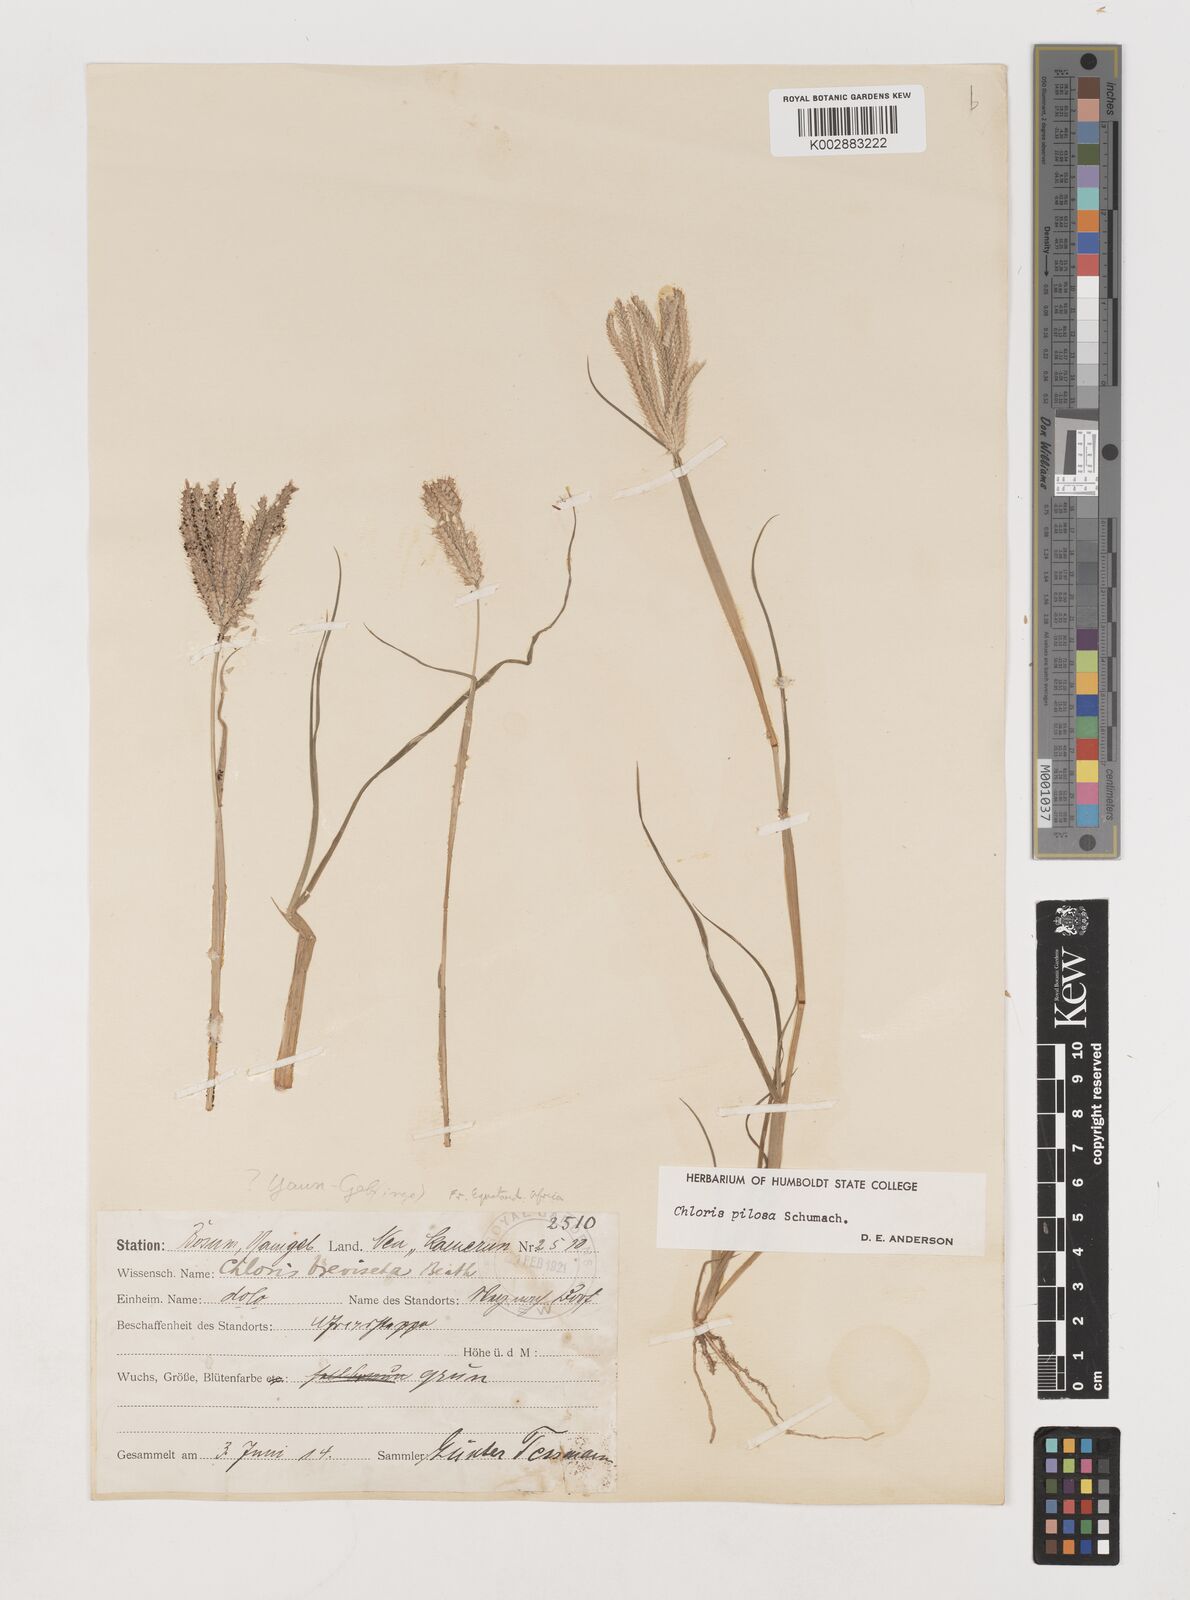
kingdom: Plantae
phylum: Tracheophyta
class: Liliopsida
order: Poales
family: Poaceae
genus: Chloris
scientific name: Chloris pilosa
